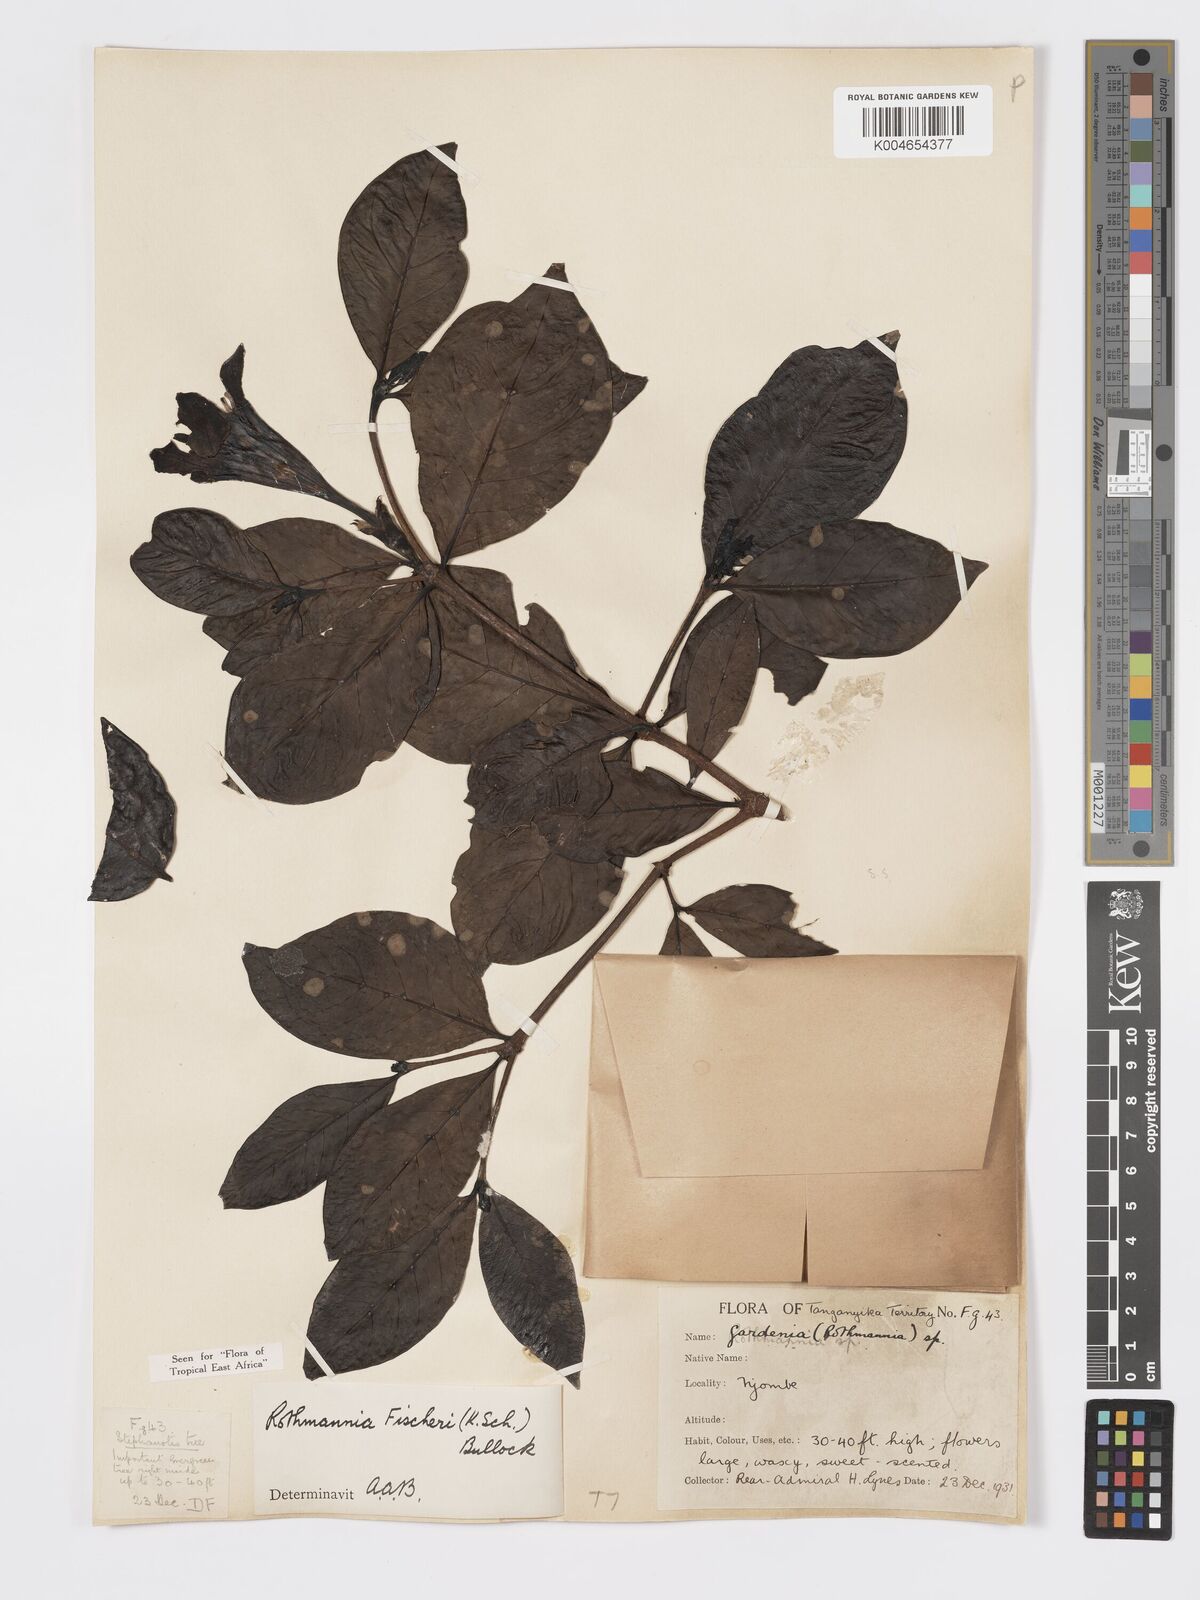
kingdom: Plantae
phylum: Tracheophyta
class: Magnoliopsida
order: Gentianales
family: Rubiaceae
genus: Rothmannia
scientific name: Rothmannia fischeri
